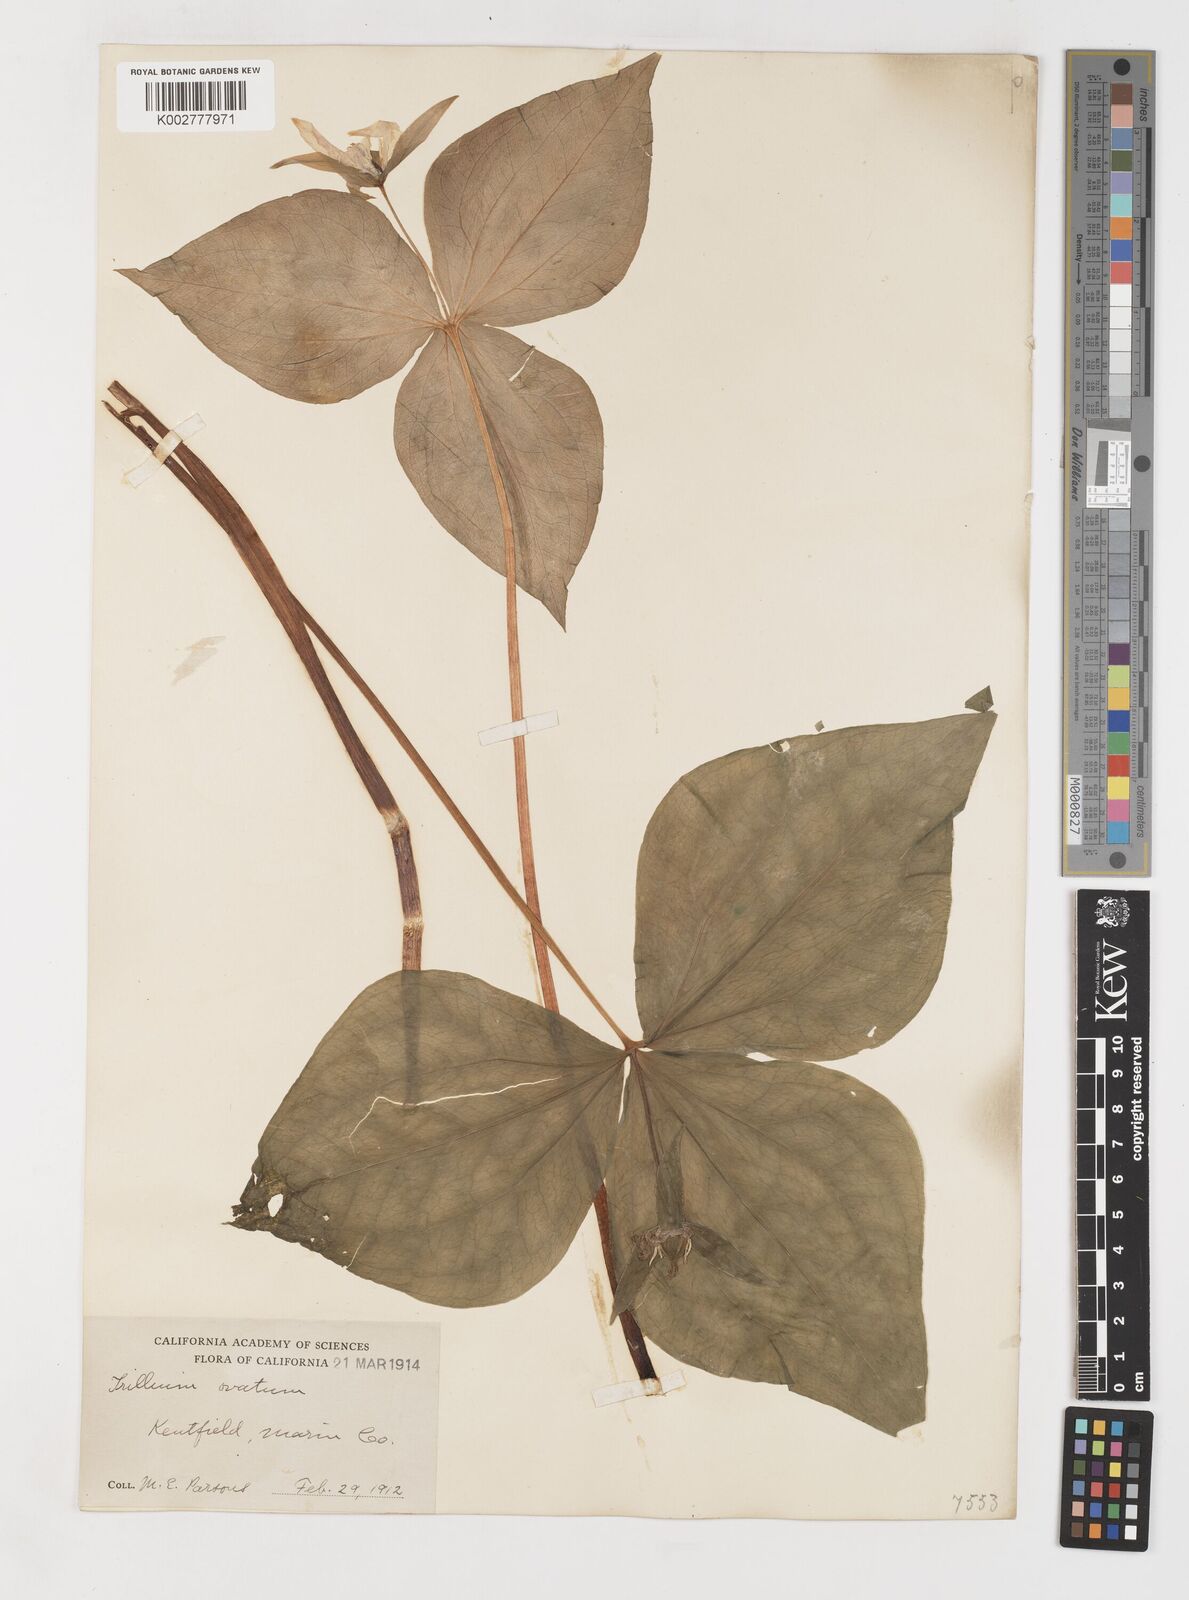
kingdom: Plantae
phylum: Tracheophyta
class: Liliopsida
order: Liliales
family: Melanthiaceae
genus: Trillium
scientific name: Trillium ovatum
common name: Pacific trillium
